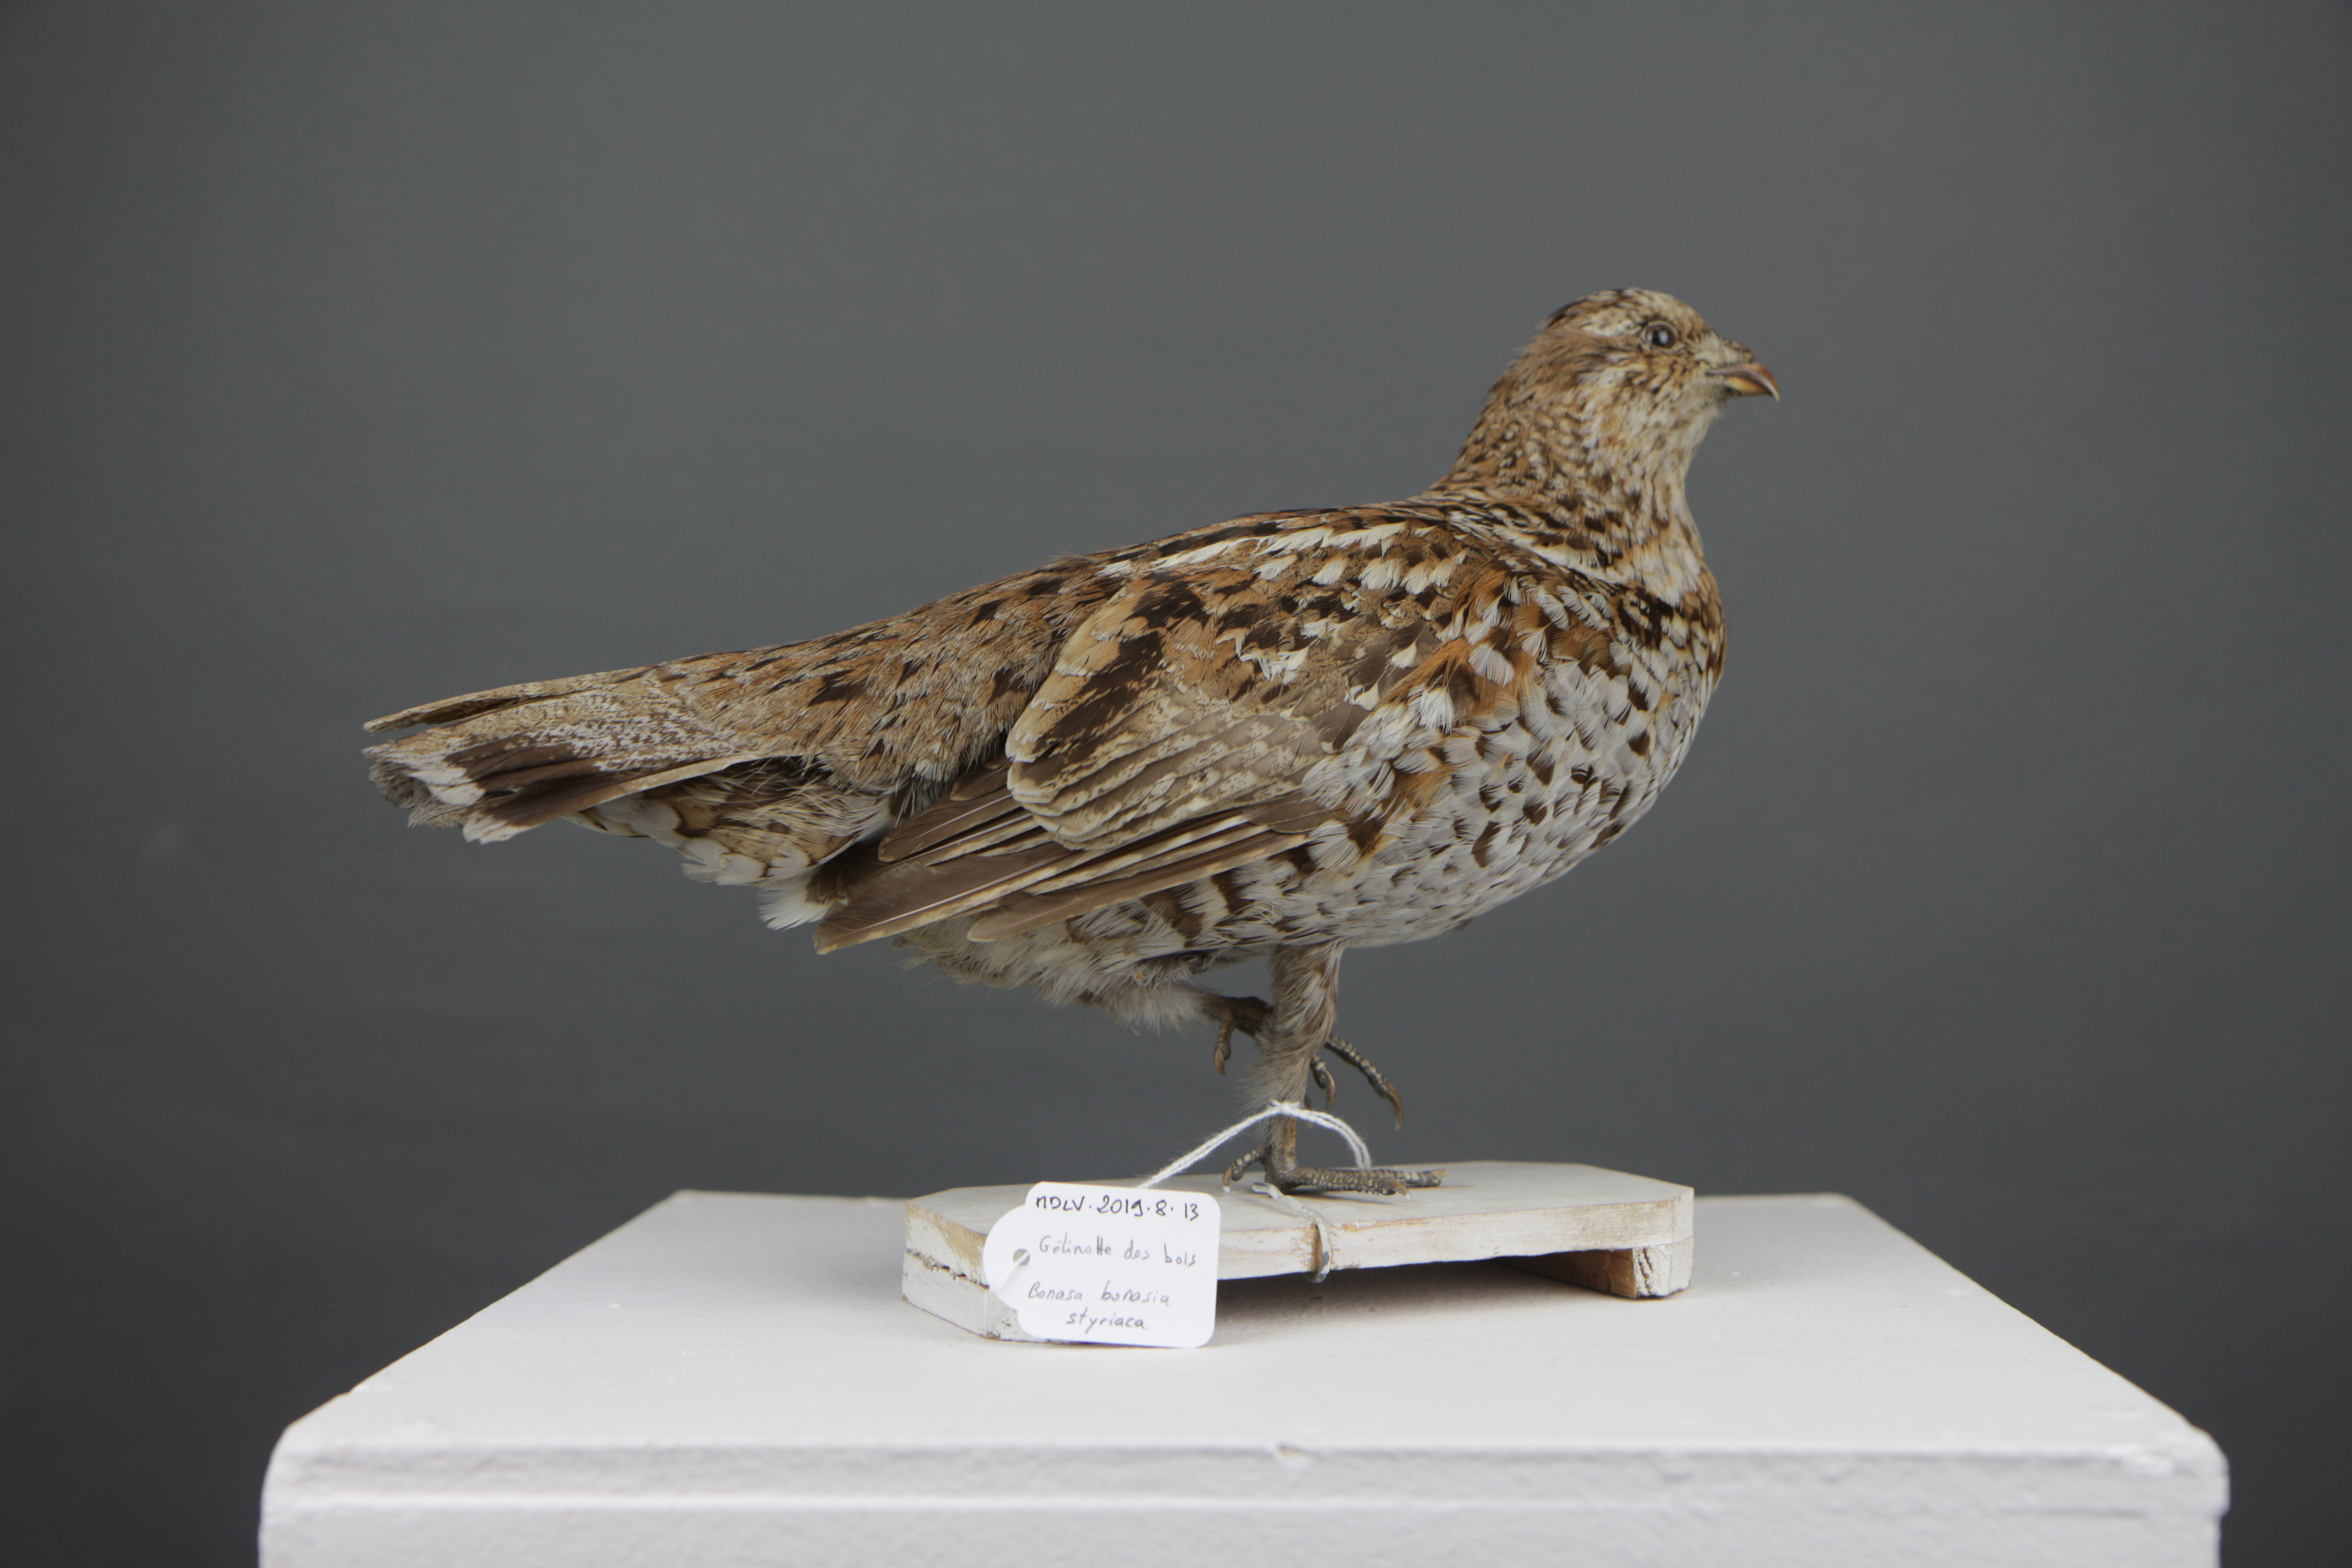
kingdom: Animalia
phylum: Chordata
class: Aves
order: Galliformes
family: Phasianidae
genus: Tetrastes
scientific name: Tetrastes bonasia
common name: Hazel grouse
